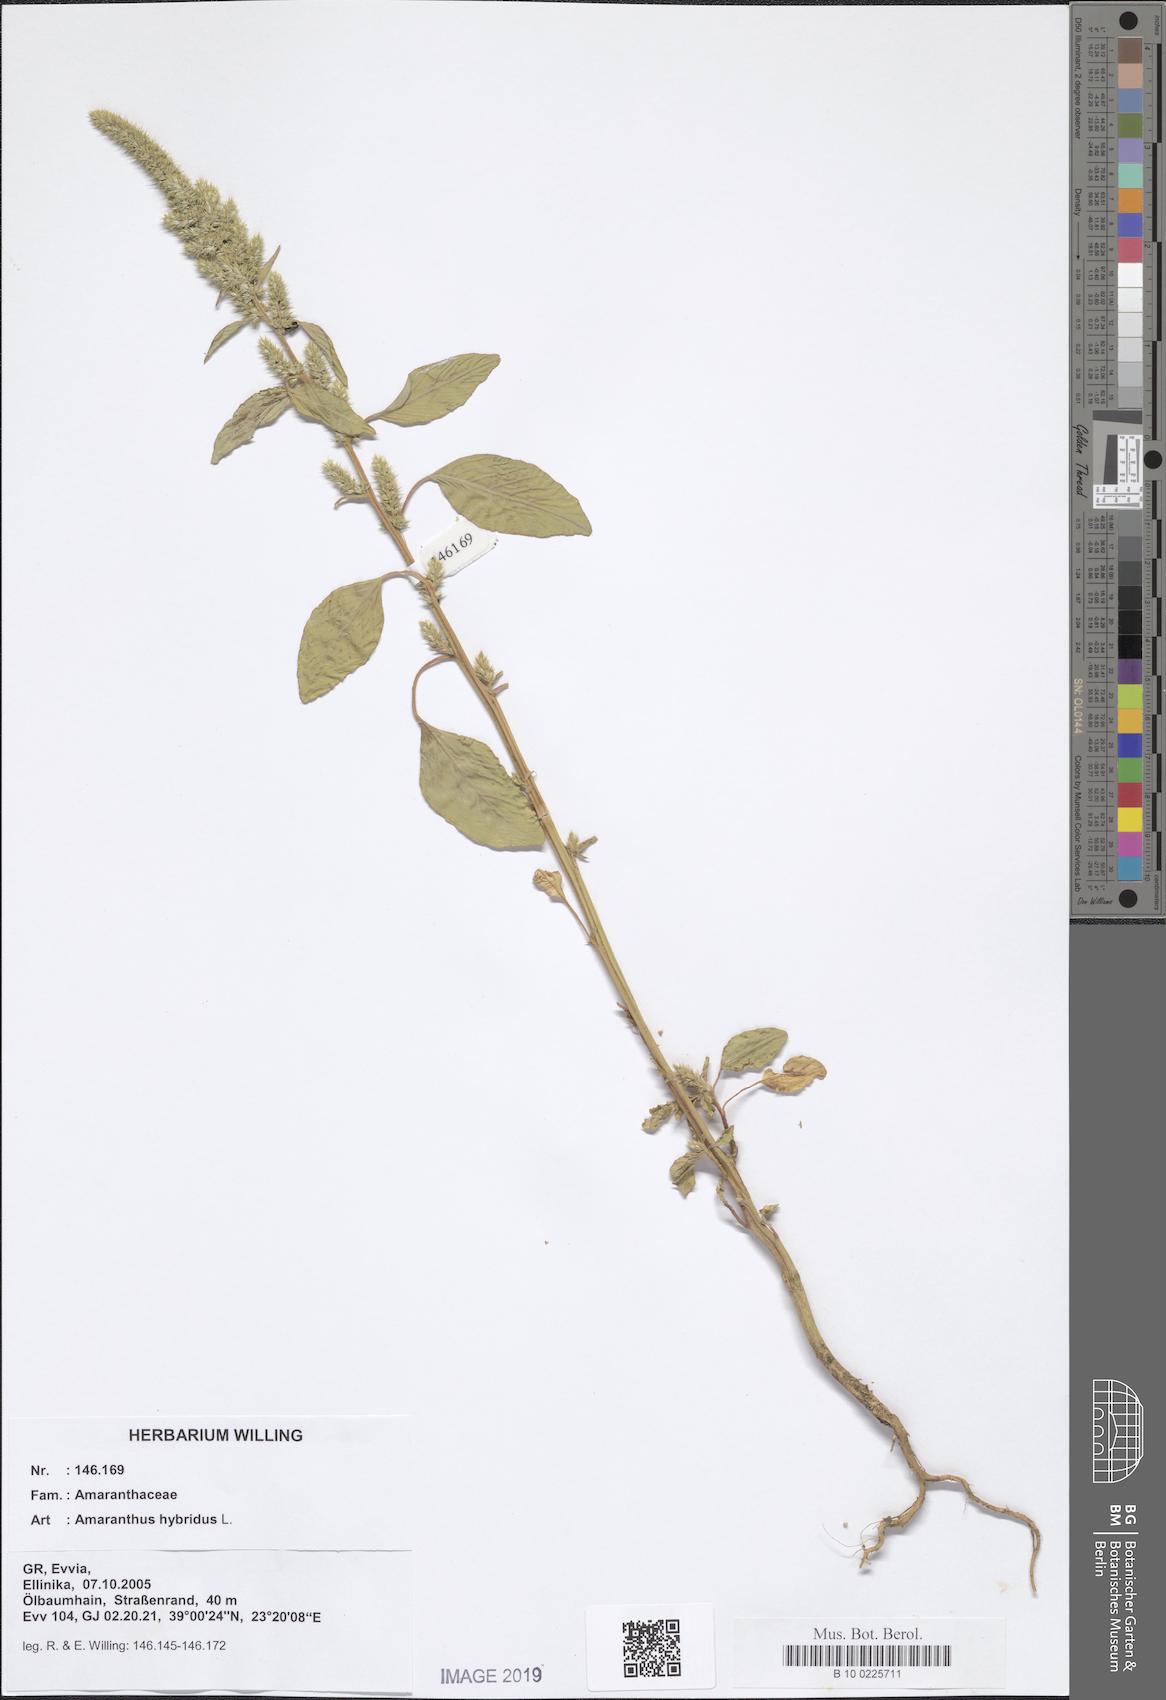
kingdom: Plantae
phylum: Tracheophyta
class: Magnoliopsida
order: Caryophyllales
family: Amaranthaceae
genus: Amaranthus
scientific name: Amaranthus hybridus
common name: Green amaranth
